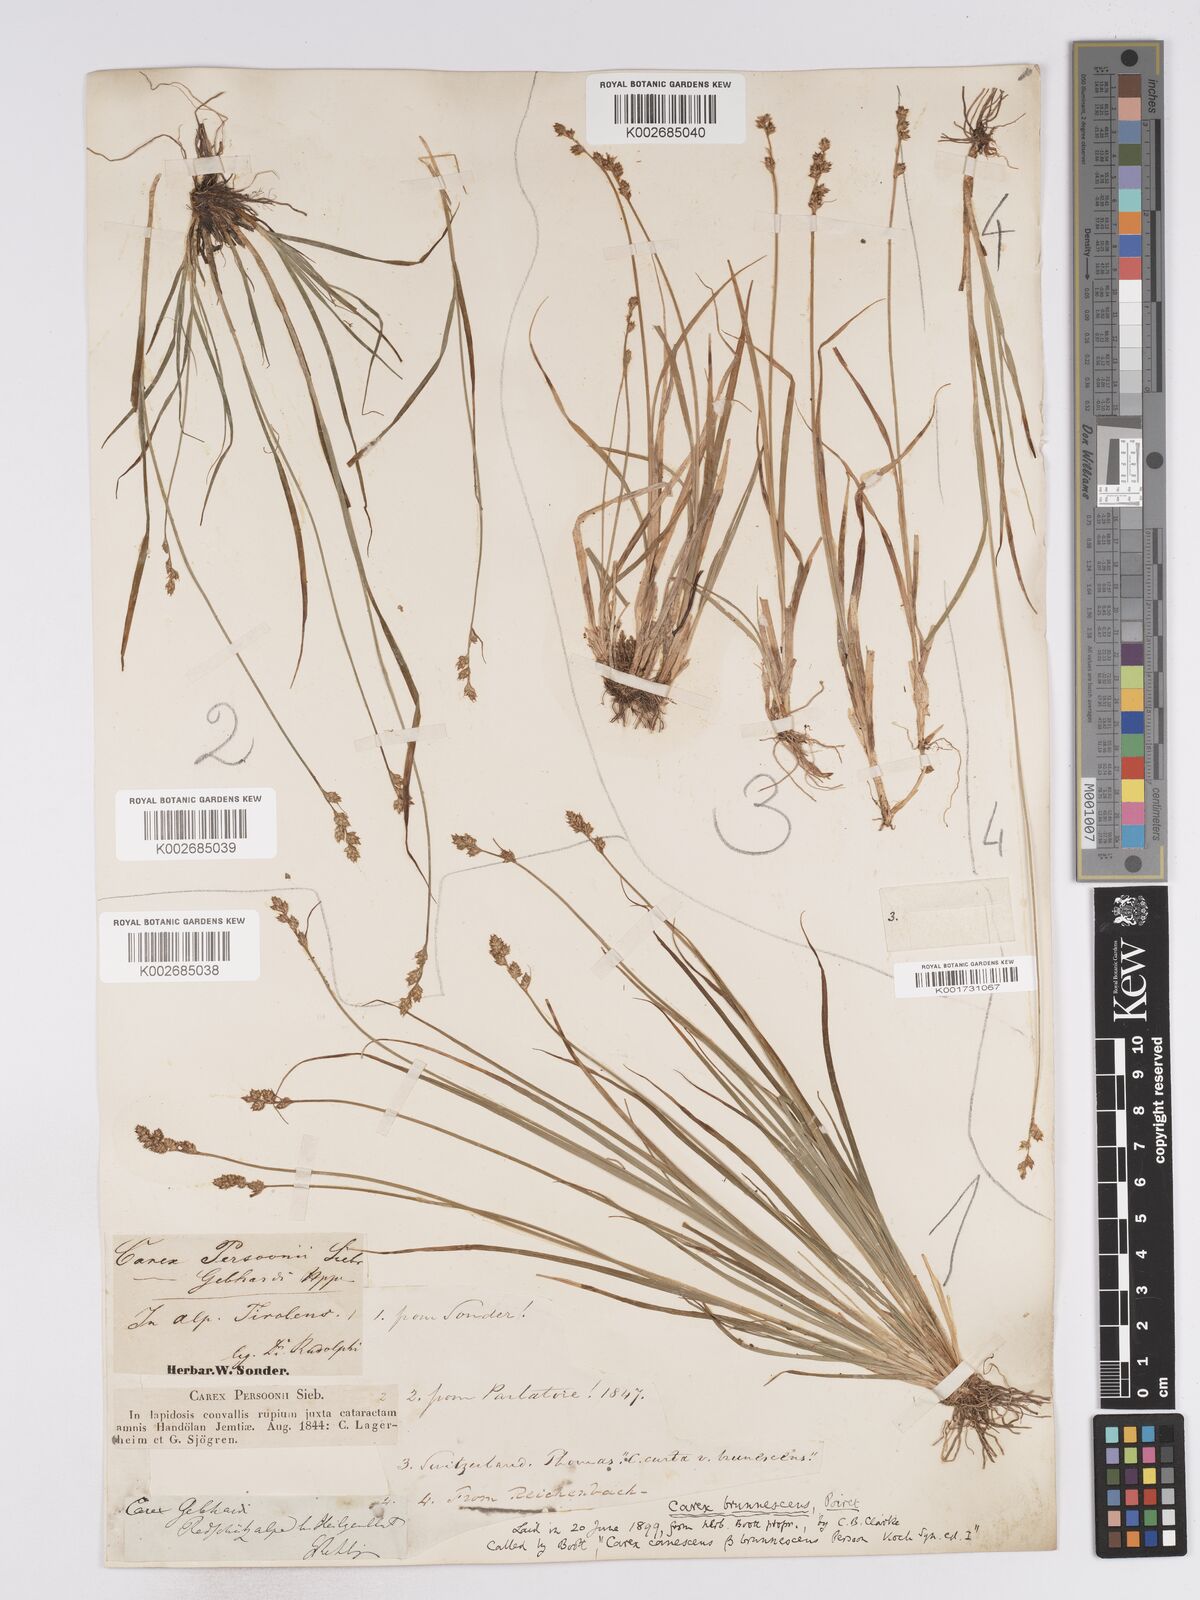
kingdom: Plantae
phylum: Tracheophyta
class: Liliopsida
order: Poales
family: Cyperaceae
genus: Carex
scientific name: Carex brunnescens
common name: Brown sedge
